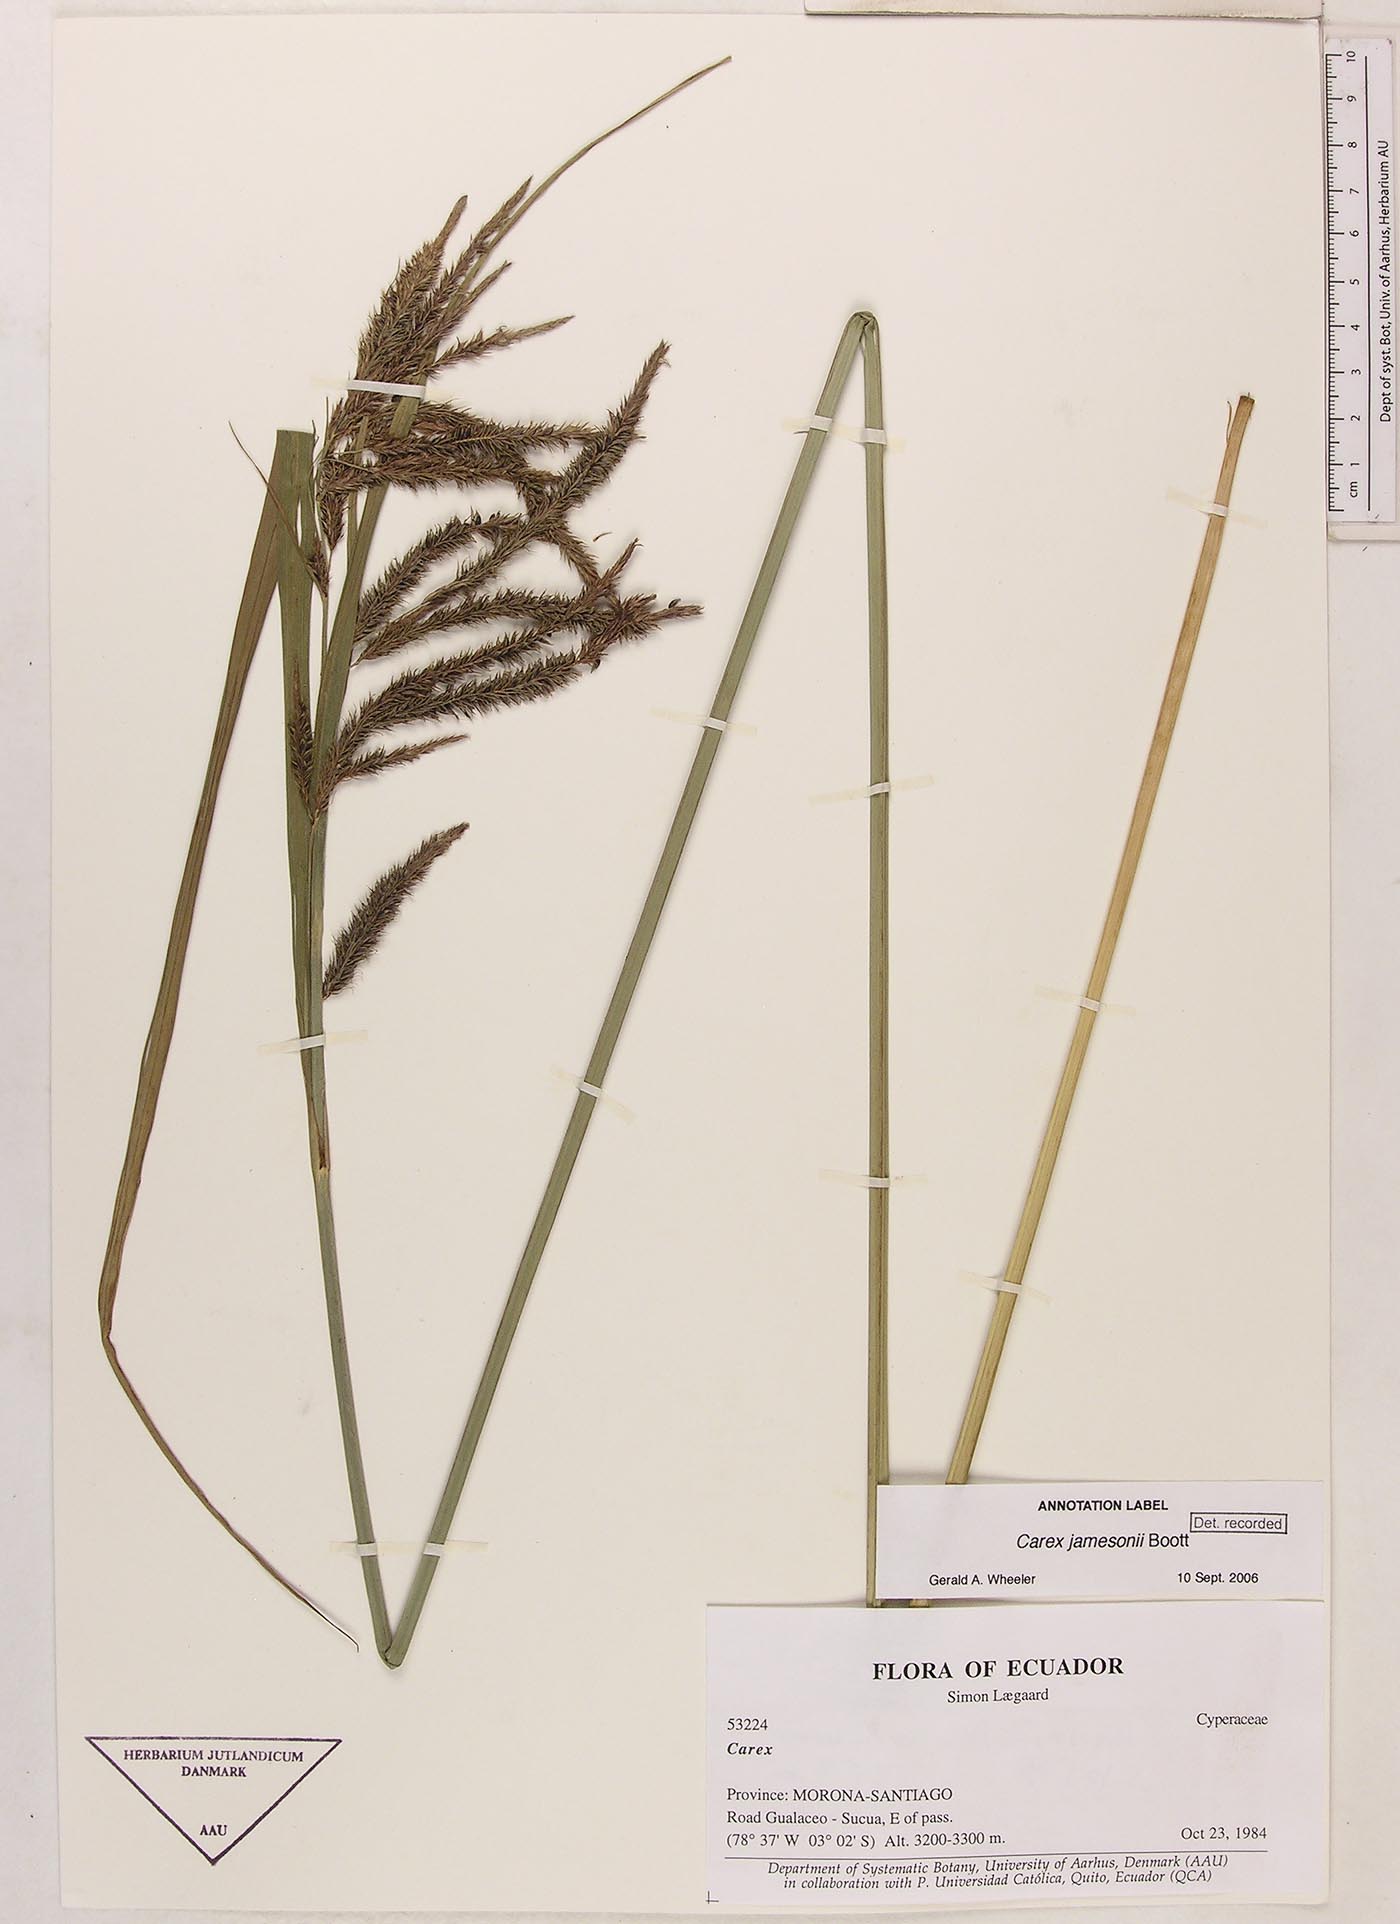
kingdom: Plantae
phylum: Tracheophyta
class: Liliopsida
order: Poales
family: Cyperaceae
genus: Carex
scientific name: Carex jamesonii
